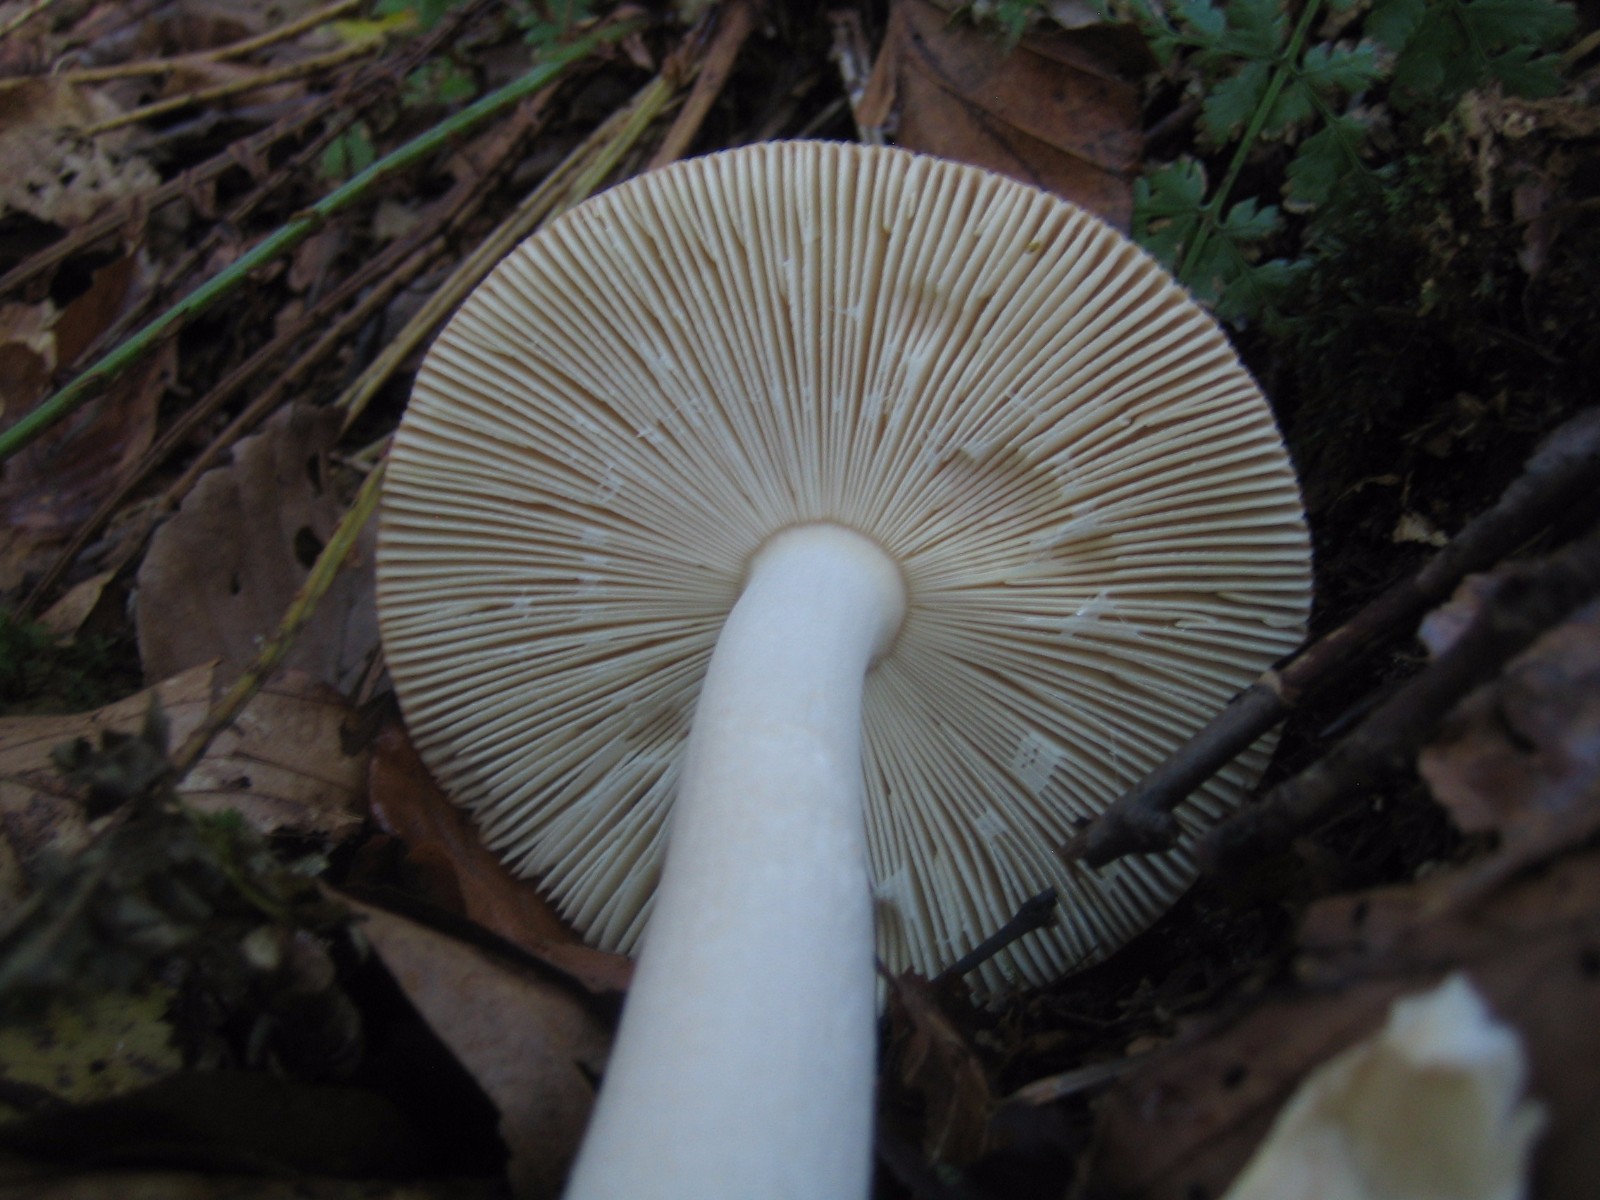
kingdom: Fungi
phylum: Basidiomycota
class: Agaricomycetes
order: Agaricales
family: Amanitaceae
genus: Amanita
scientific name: Amanita fulva
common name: brun kam-fluesvamp
